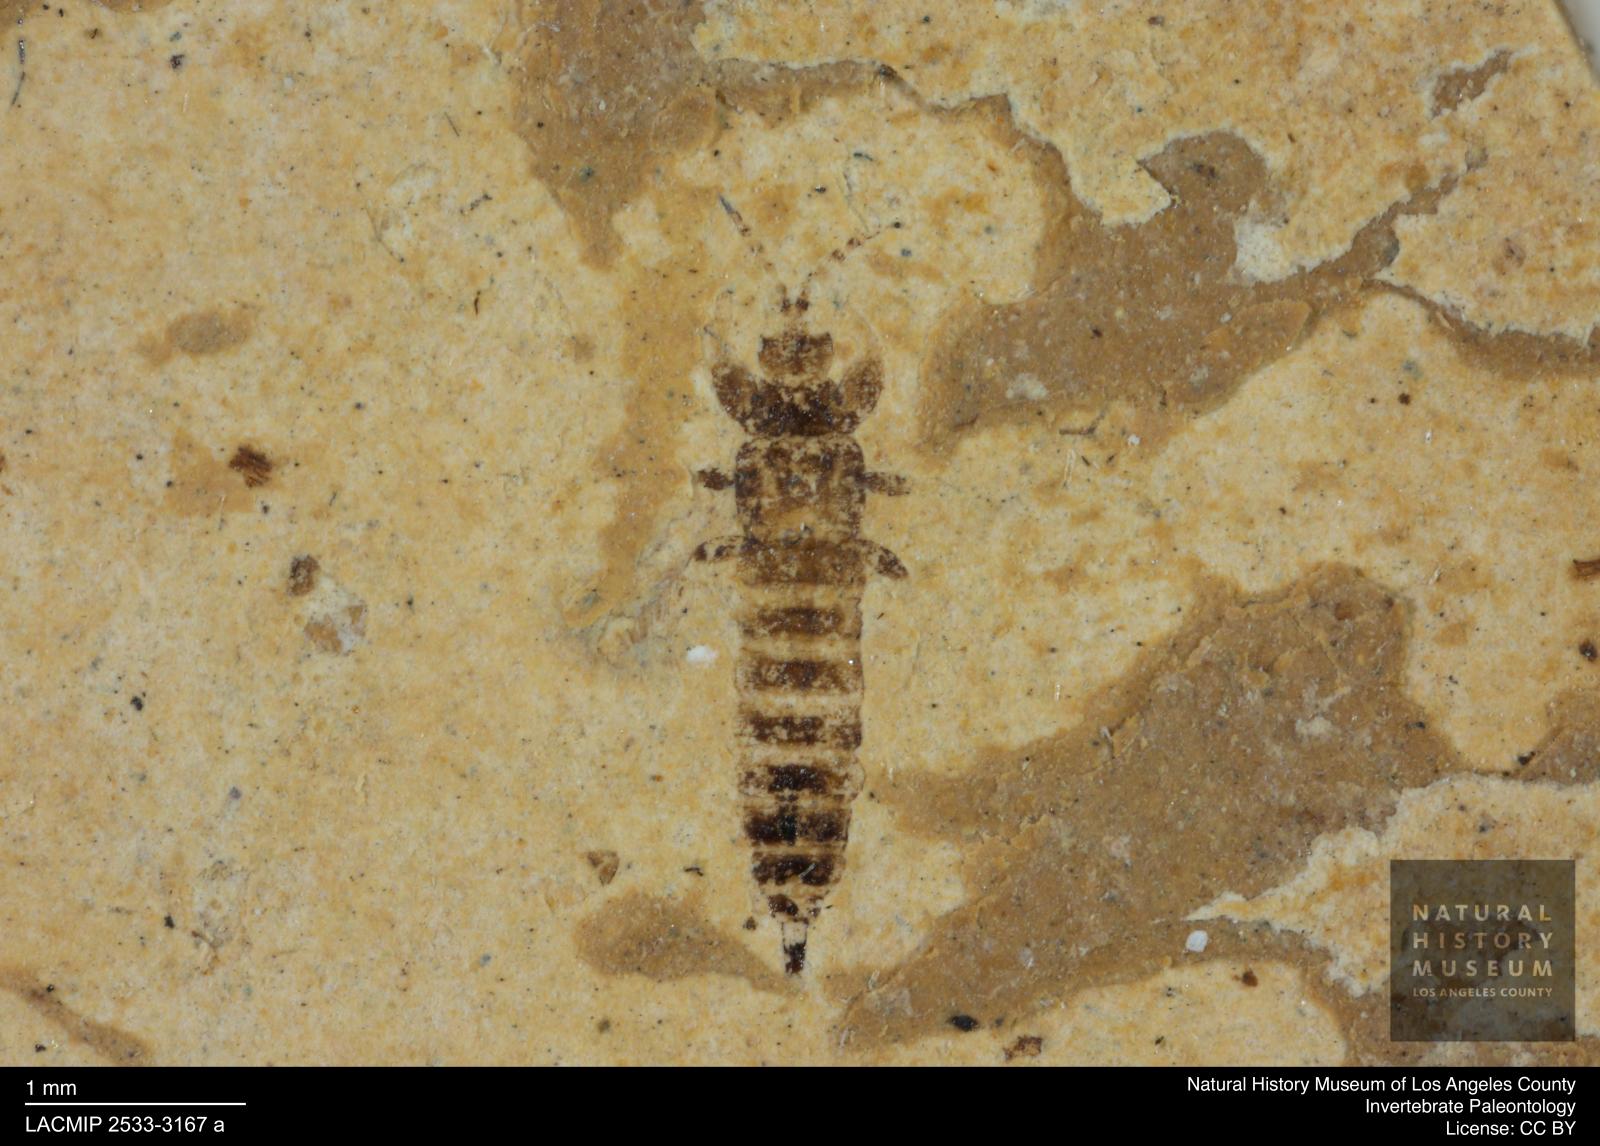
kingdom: Animalia
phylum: Arthropoda
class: Insecta
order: Thysanoptera
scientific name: Thysanoptera
